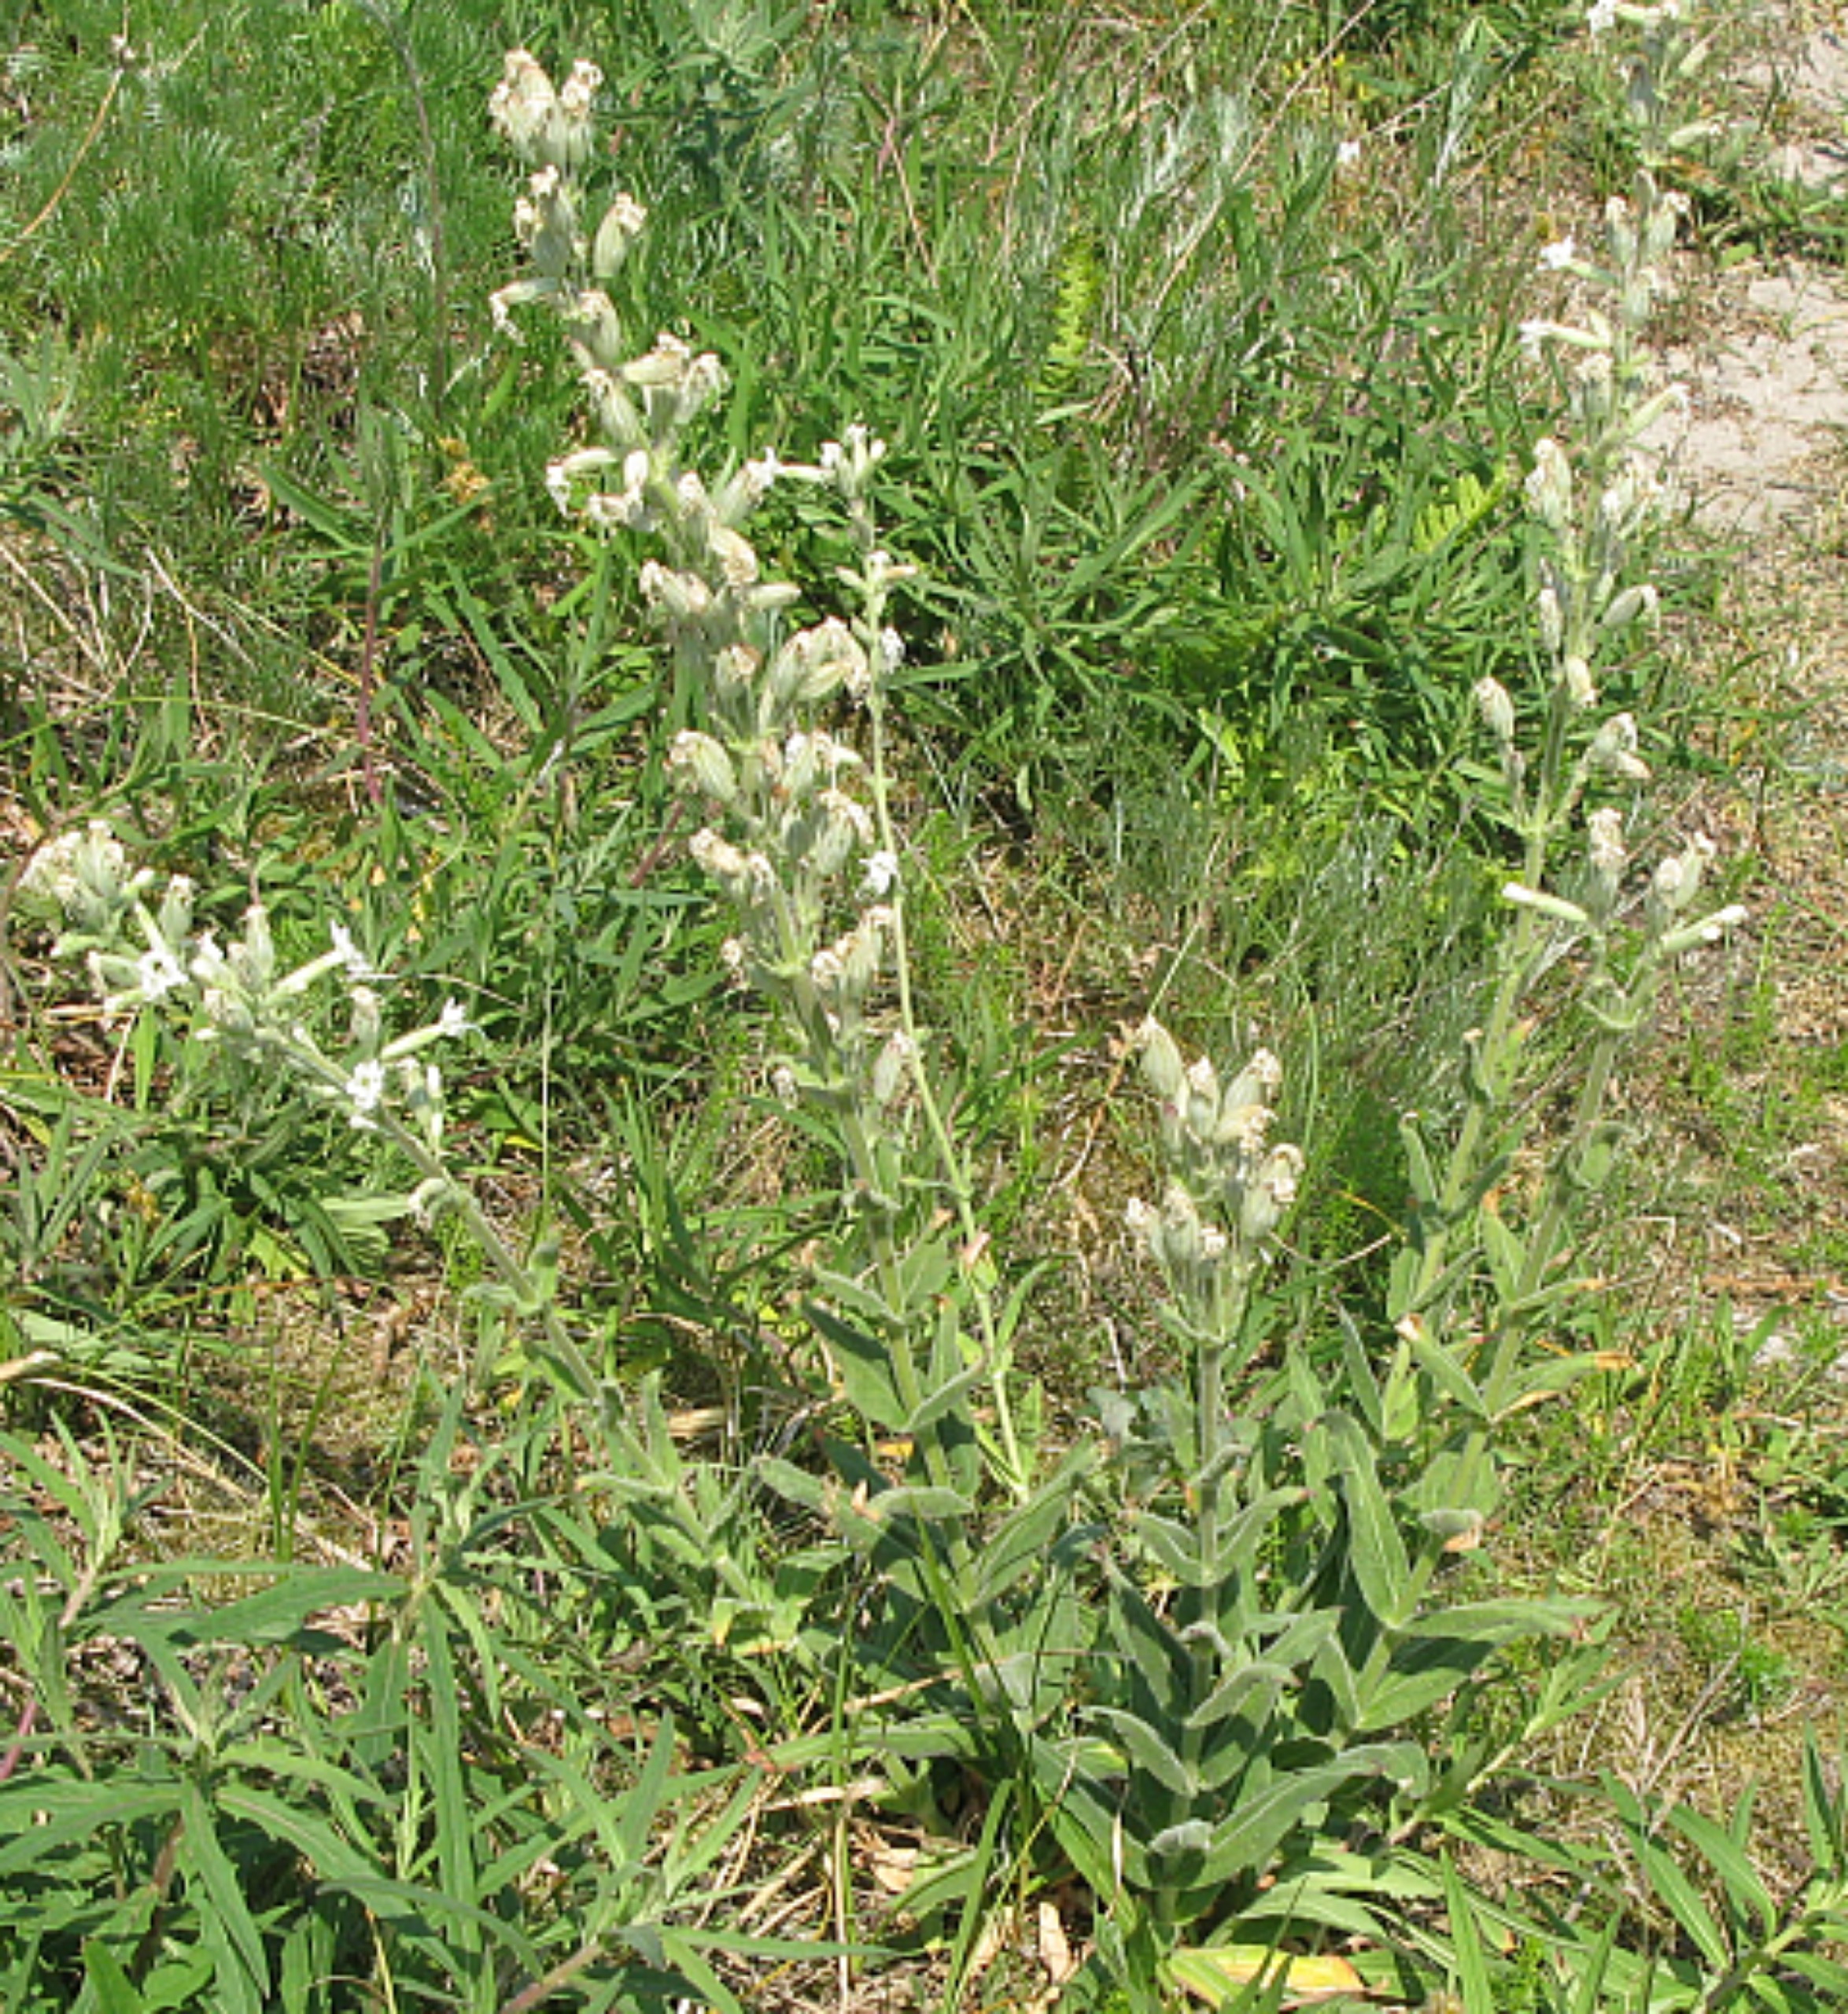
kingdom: Plantae
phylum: Tracheophyta
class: Magnoliopsida
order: Caryophyllales
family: Caryophyllaceae
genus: Silene
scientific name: Silene viscosa
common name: Klæbrig limurt
